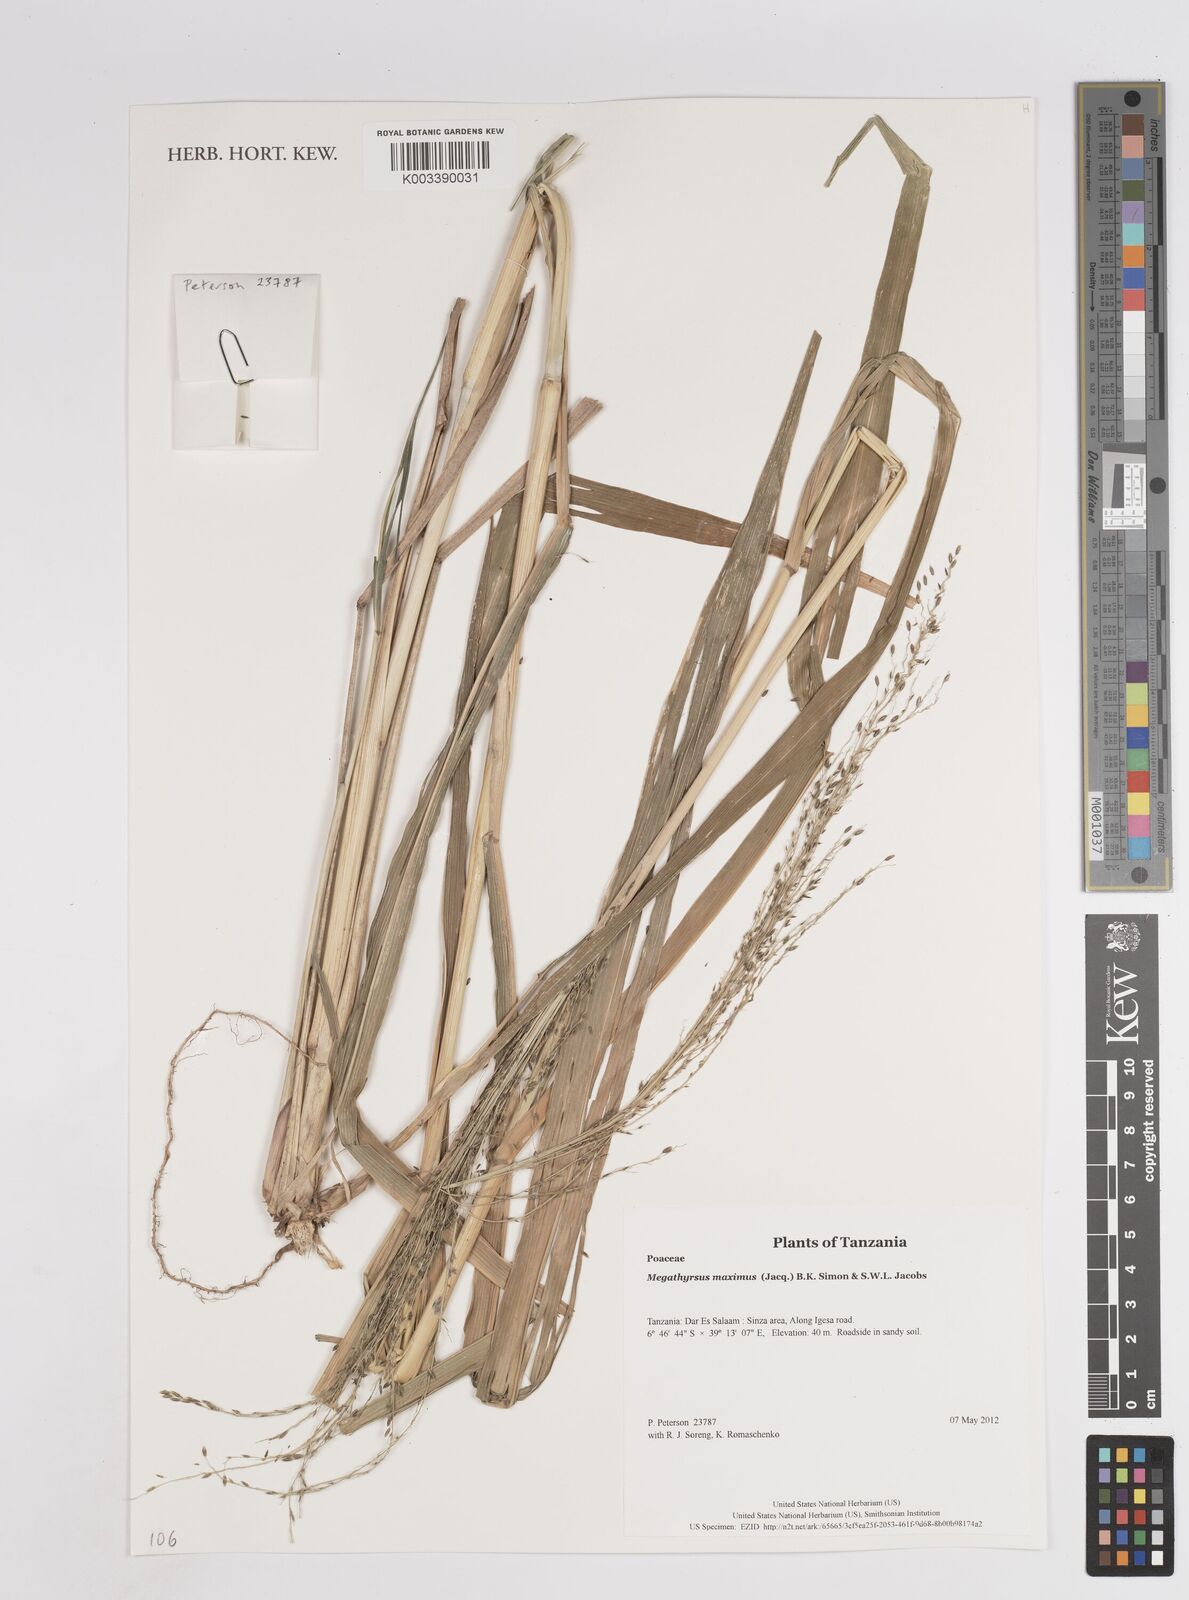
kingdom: Plantae
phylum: Tracheophyta
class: Liliopsida
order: Poales
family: Poaceae
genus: Megathyrsus
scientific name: Megathyrsus maximus
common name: Guineagrass
